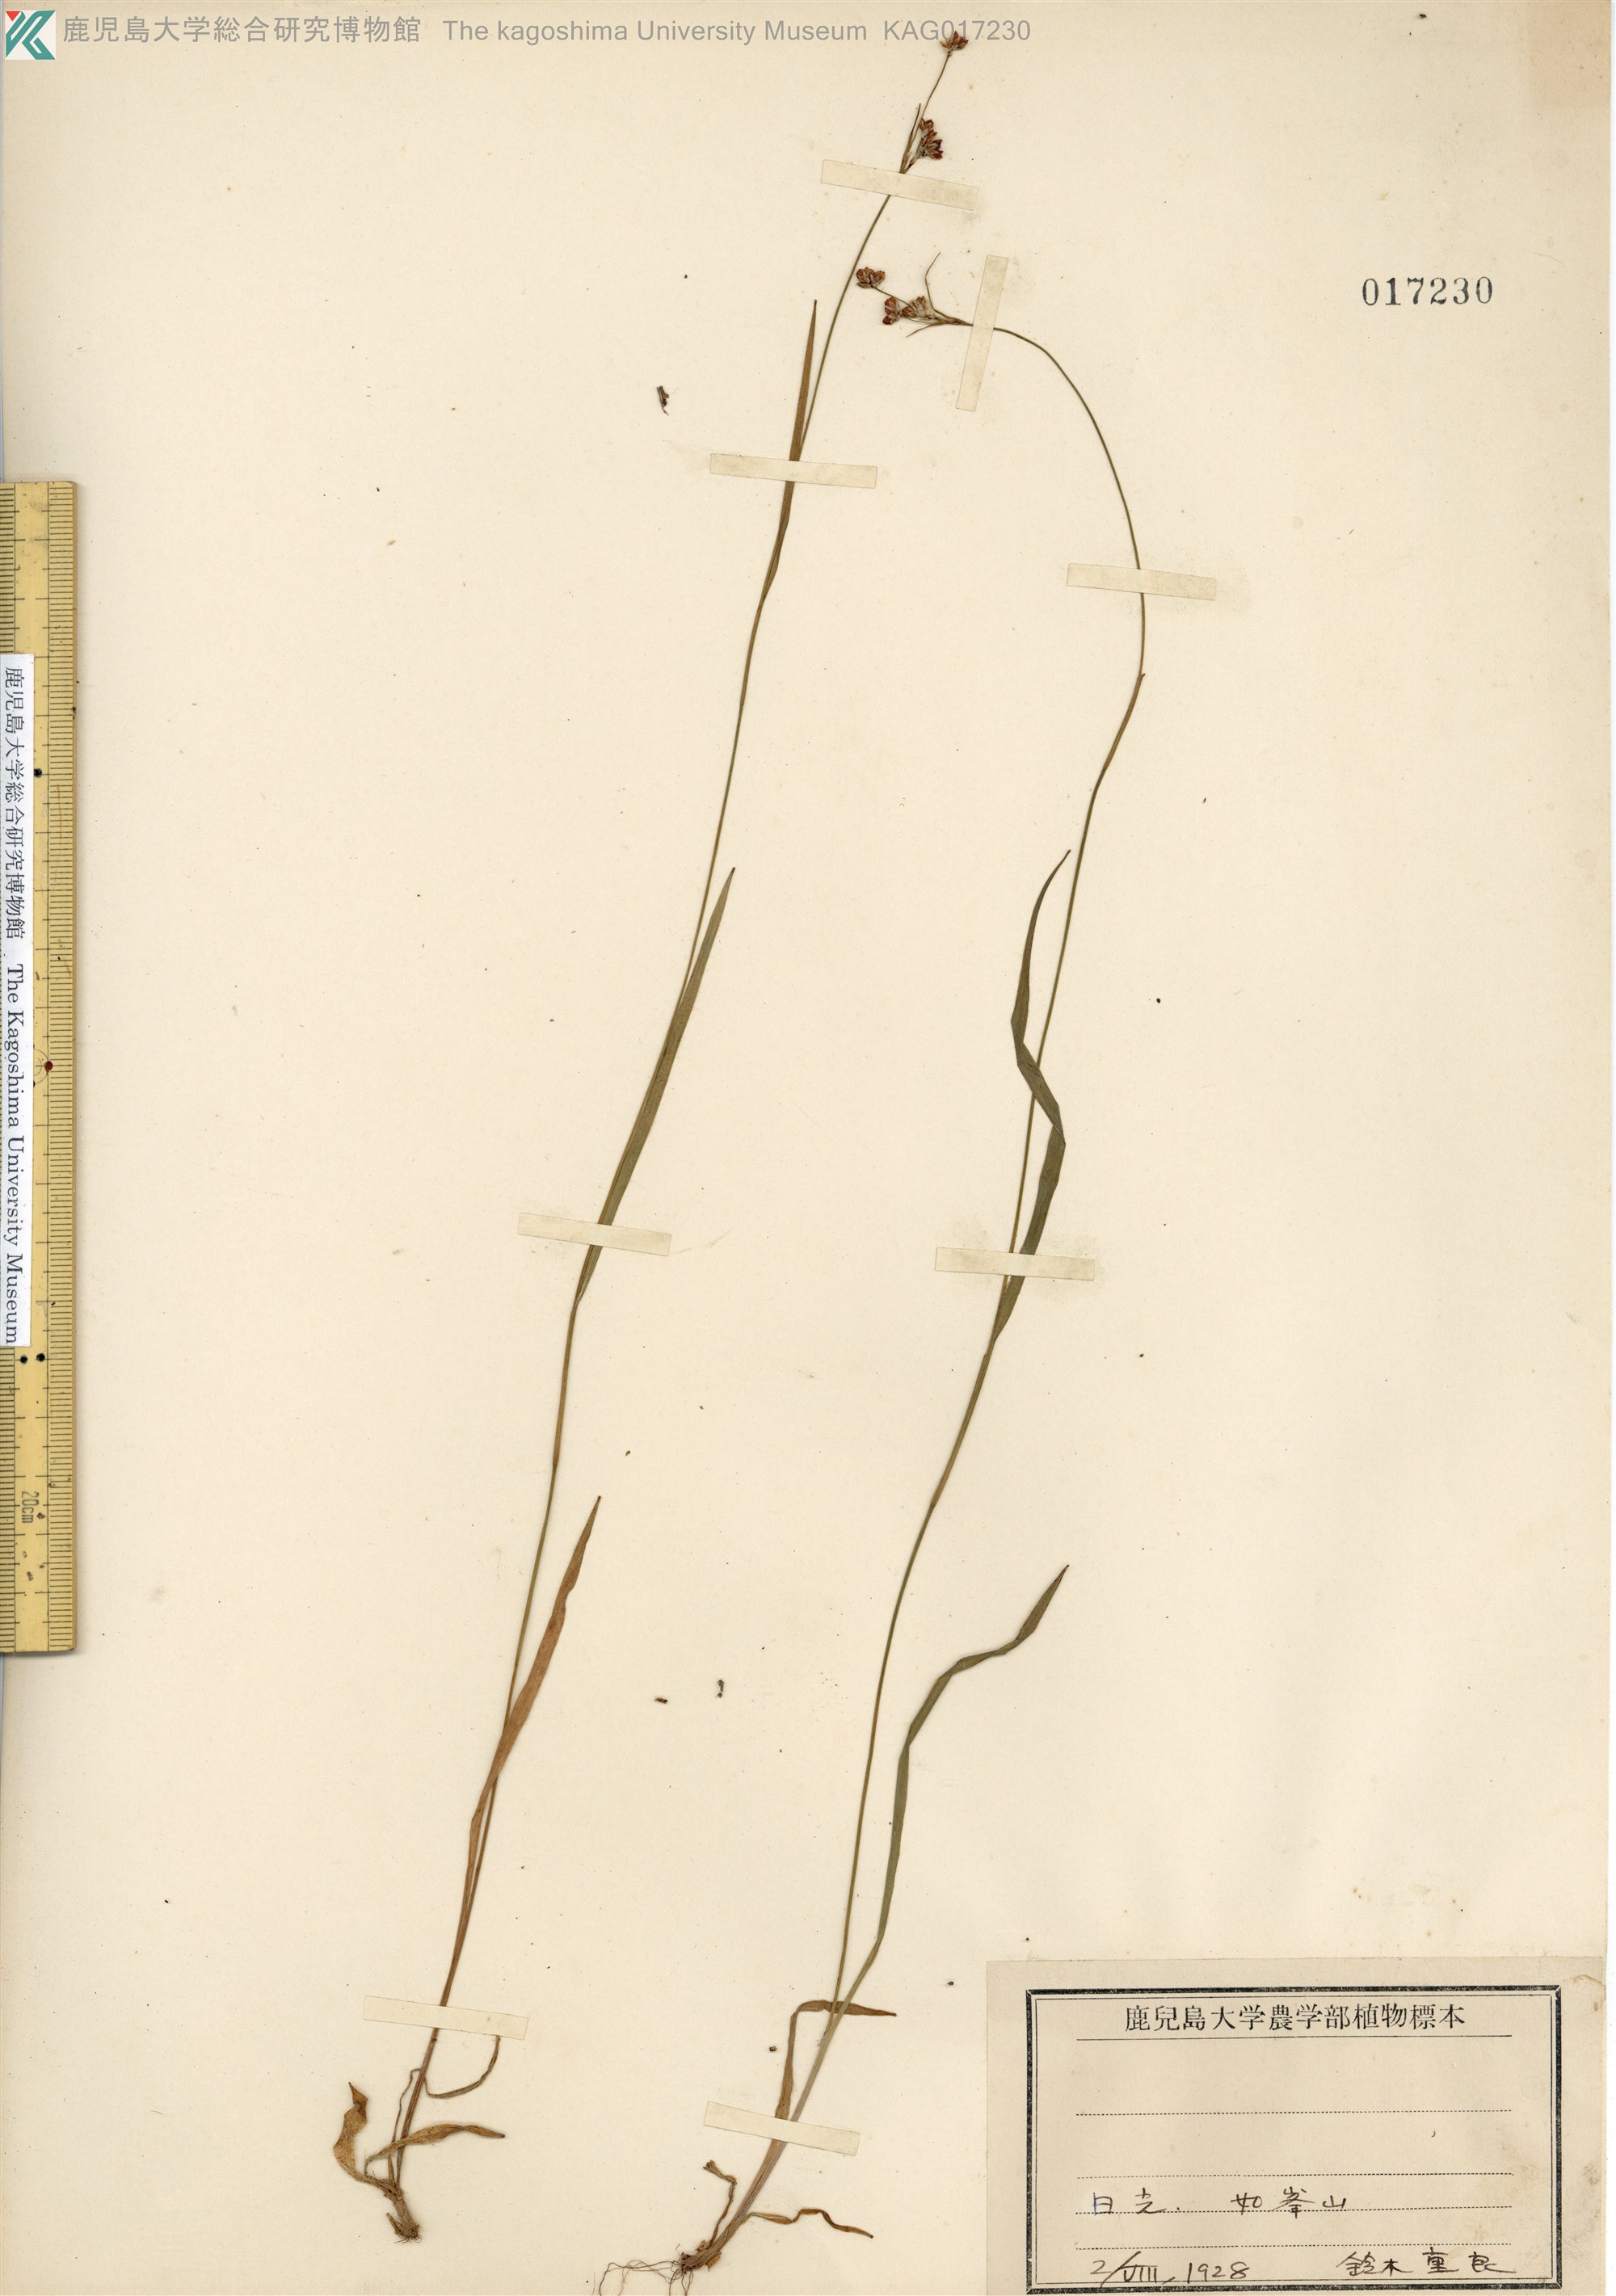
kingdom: Plantae
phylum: Tracheophyta
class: Liliopsida
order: Poales
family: Juncaceae
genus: Luzula
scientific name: Luzula oligantha
